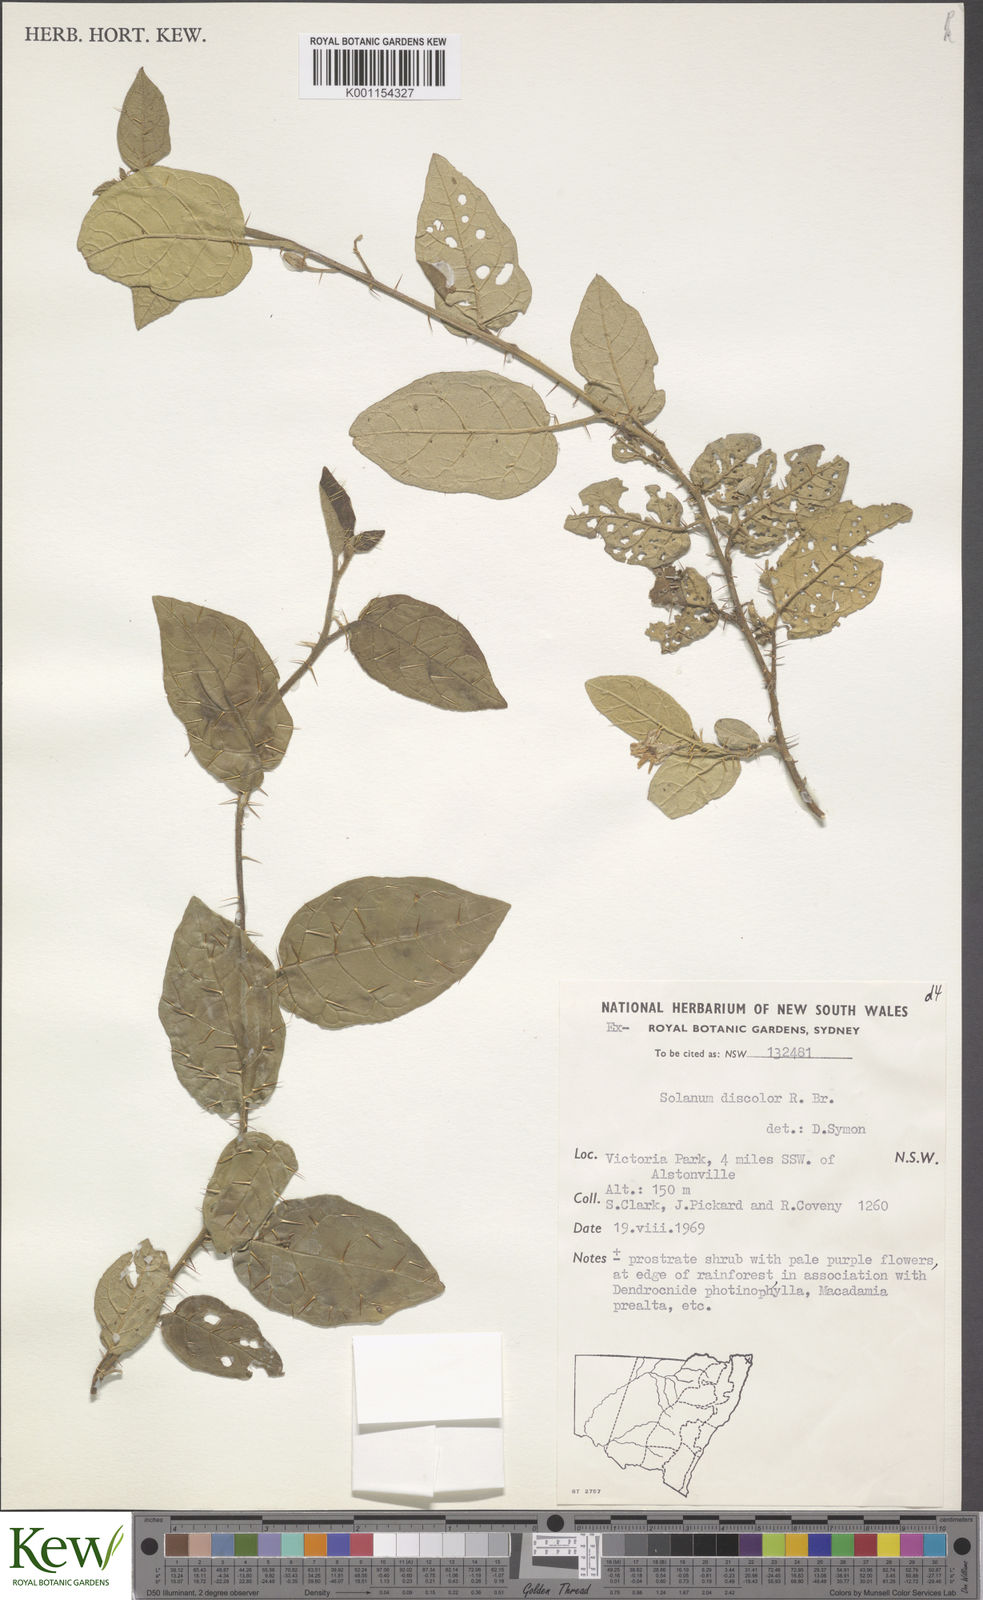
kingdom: Plantae
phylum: Tracheophyta
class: Magnoliopsida
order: Solanales
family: Solanaceae
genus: Solanum
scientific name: Solanum discolor
